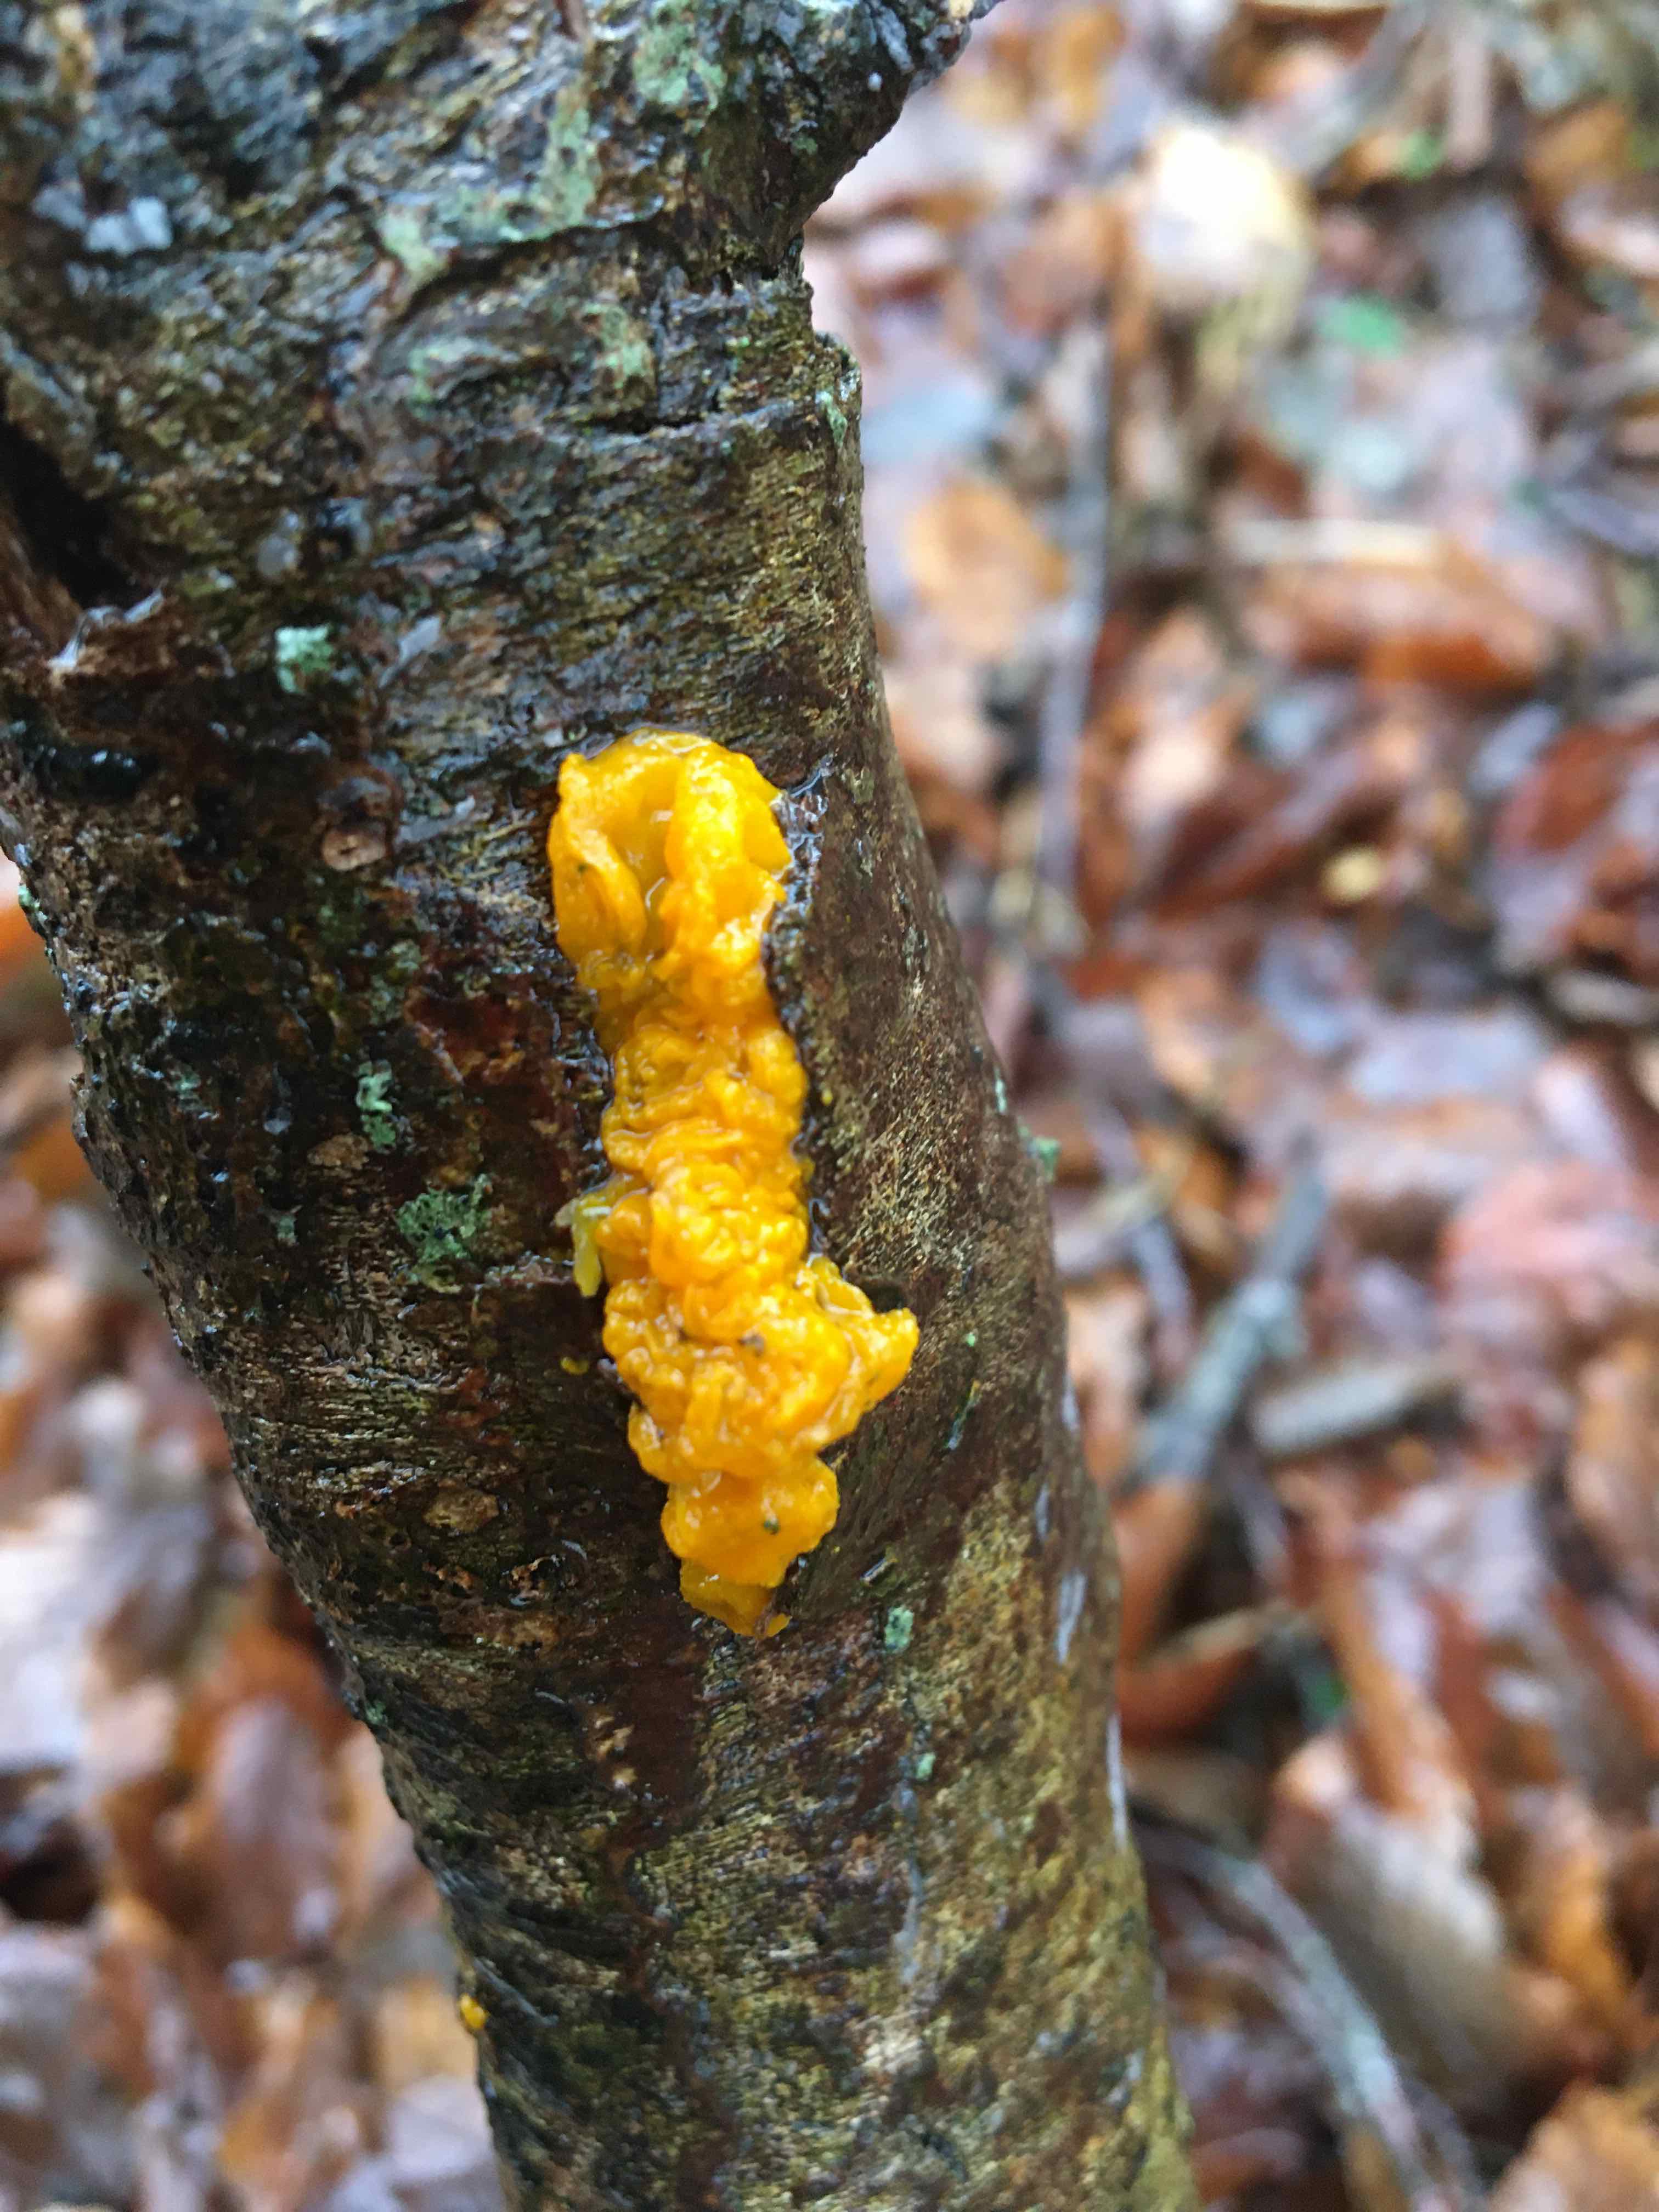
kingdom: Fungi
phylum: Basidiomycota
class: Tremellomycetes
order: Tremellales
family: Tremellaceae
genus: Tremella
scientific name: Tremella mesenterica
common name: gul bævresvamp
